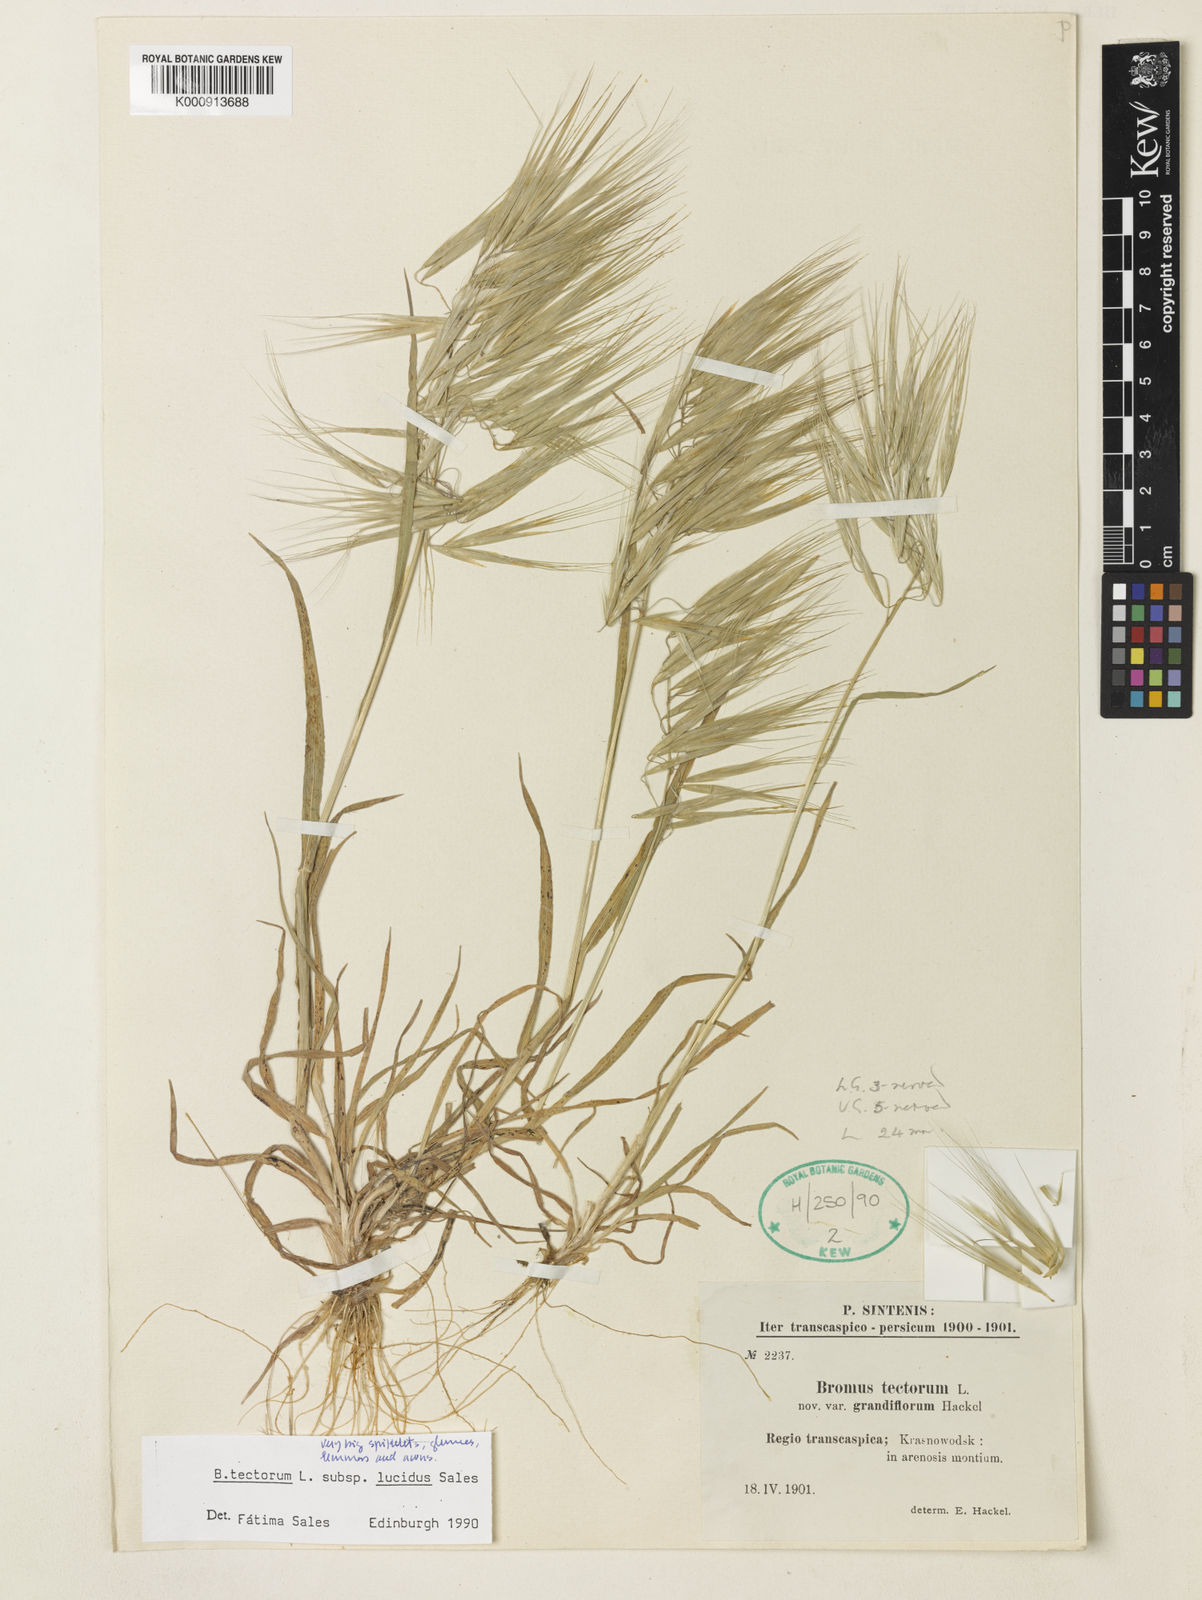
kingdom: Plantae
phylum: Tracheophyta
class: Liliopsida
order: Poales
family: Poaceae
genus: Bromus
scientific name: Bromus moeszii
